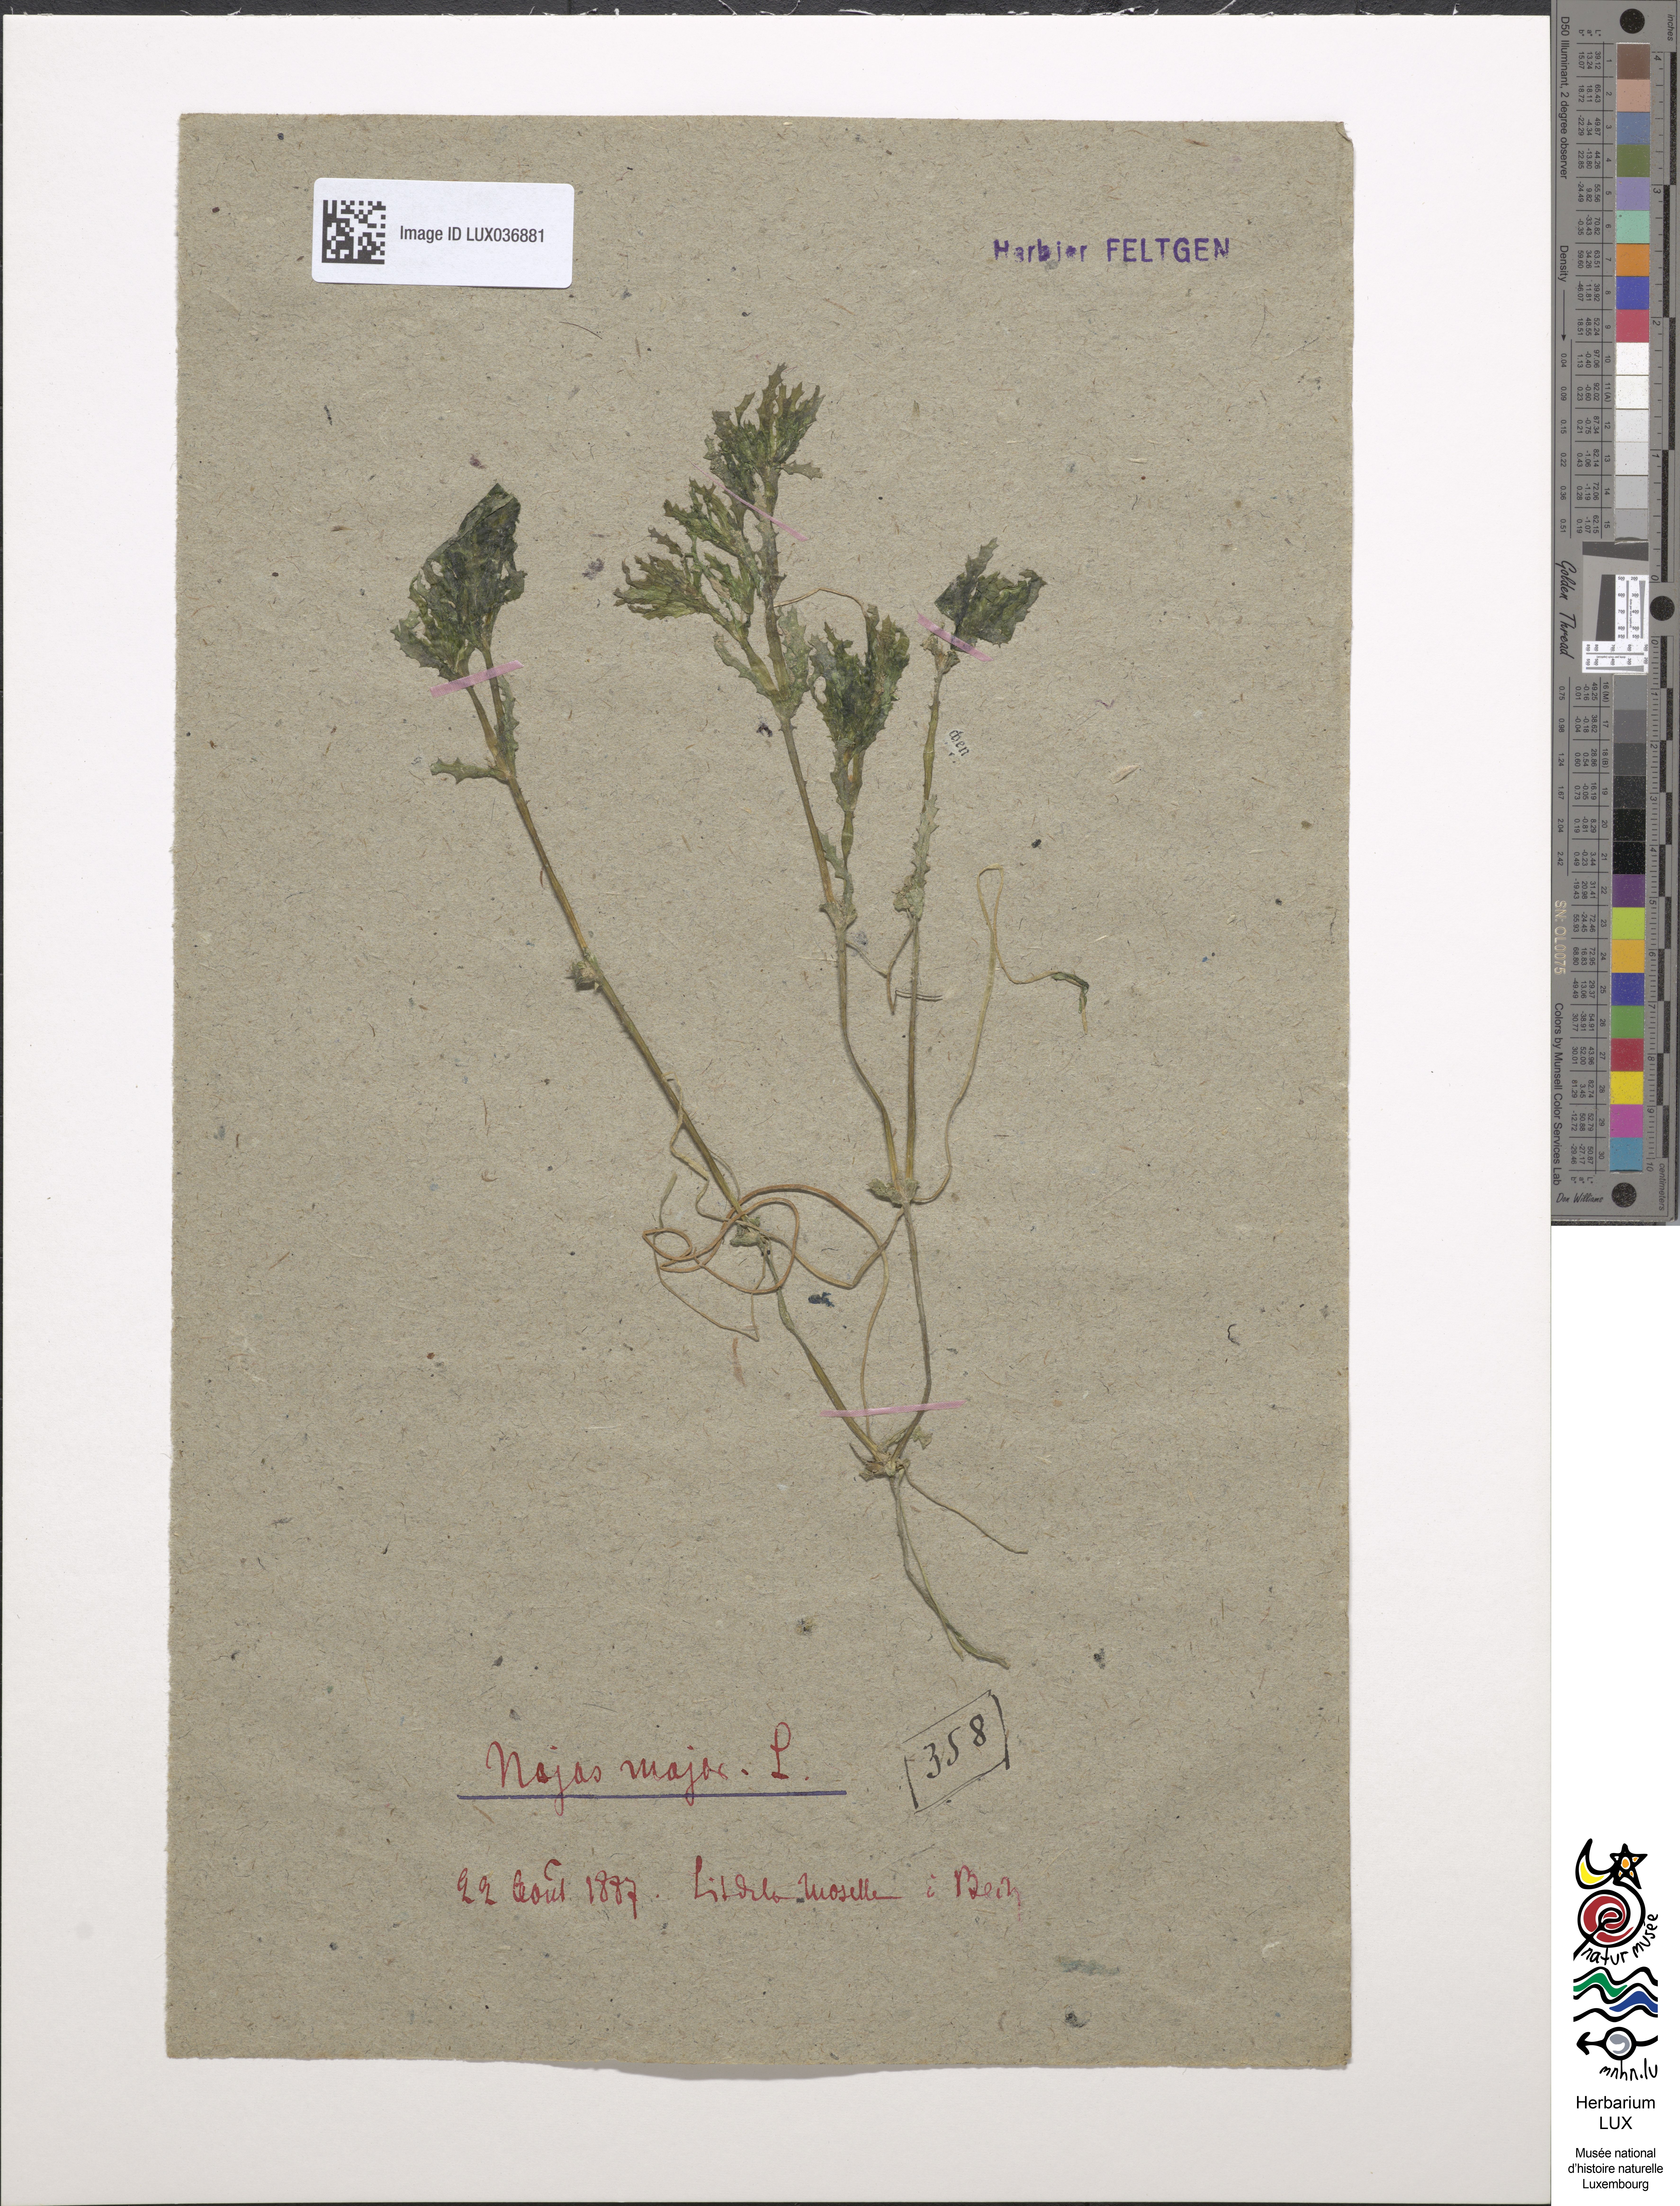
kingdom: Plantae
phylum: Tracheophyta
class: Liliopsida
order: Alismatales
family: Hydrocharitaceae
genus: Najas
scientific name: Najas marina
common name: Holly-leaved naiad
